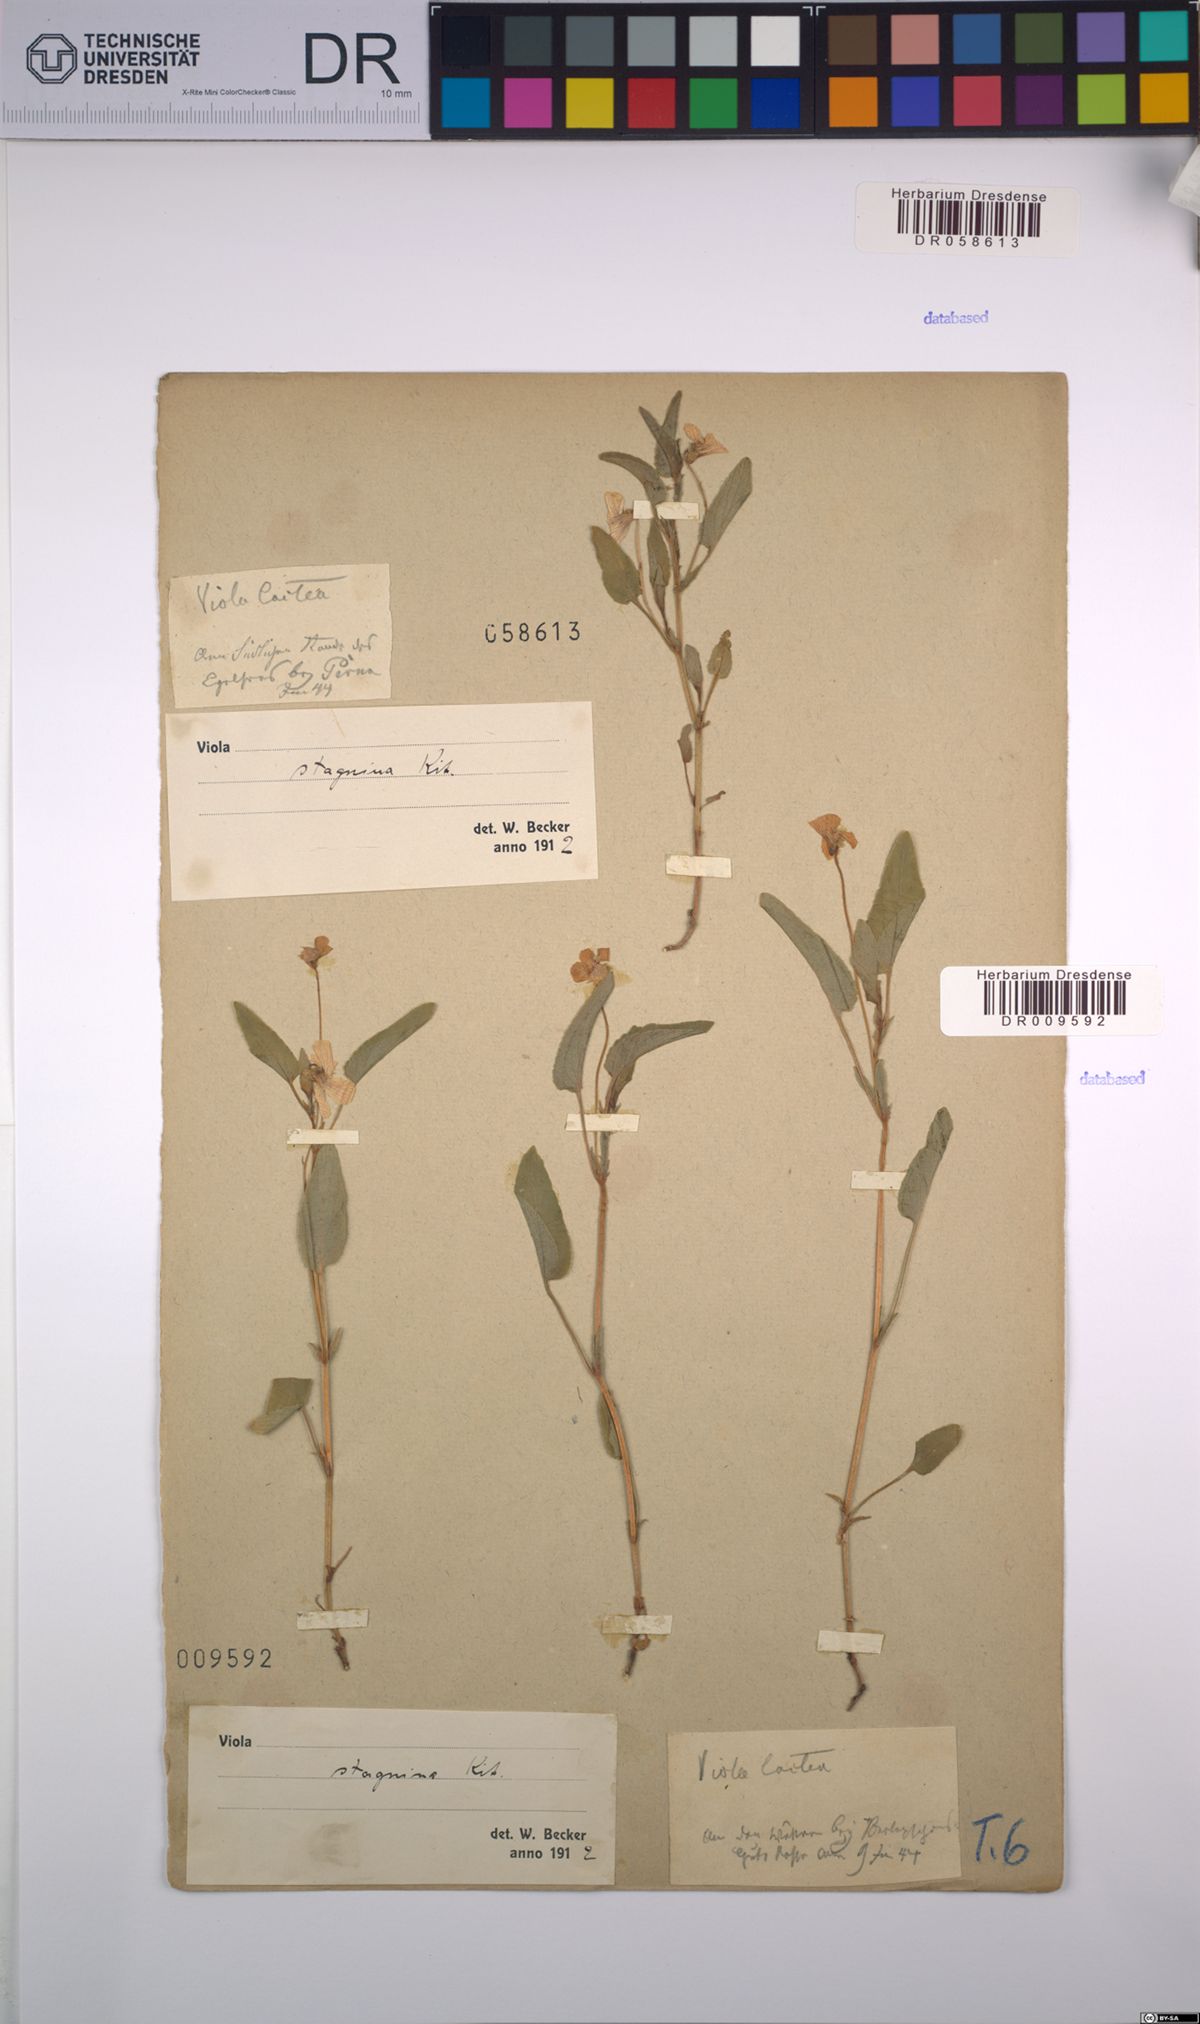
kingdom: Plantae
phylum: Tracheophyta
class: Magnoliopsida
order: Malpighiales
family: Violaceae
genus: Viola
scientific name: Viola stagnina
